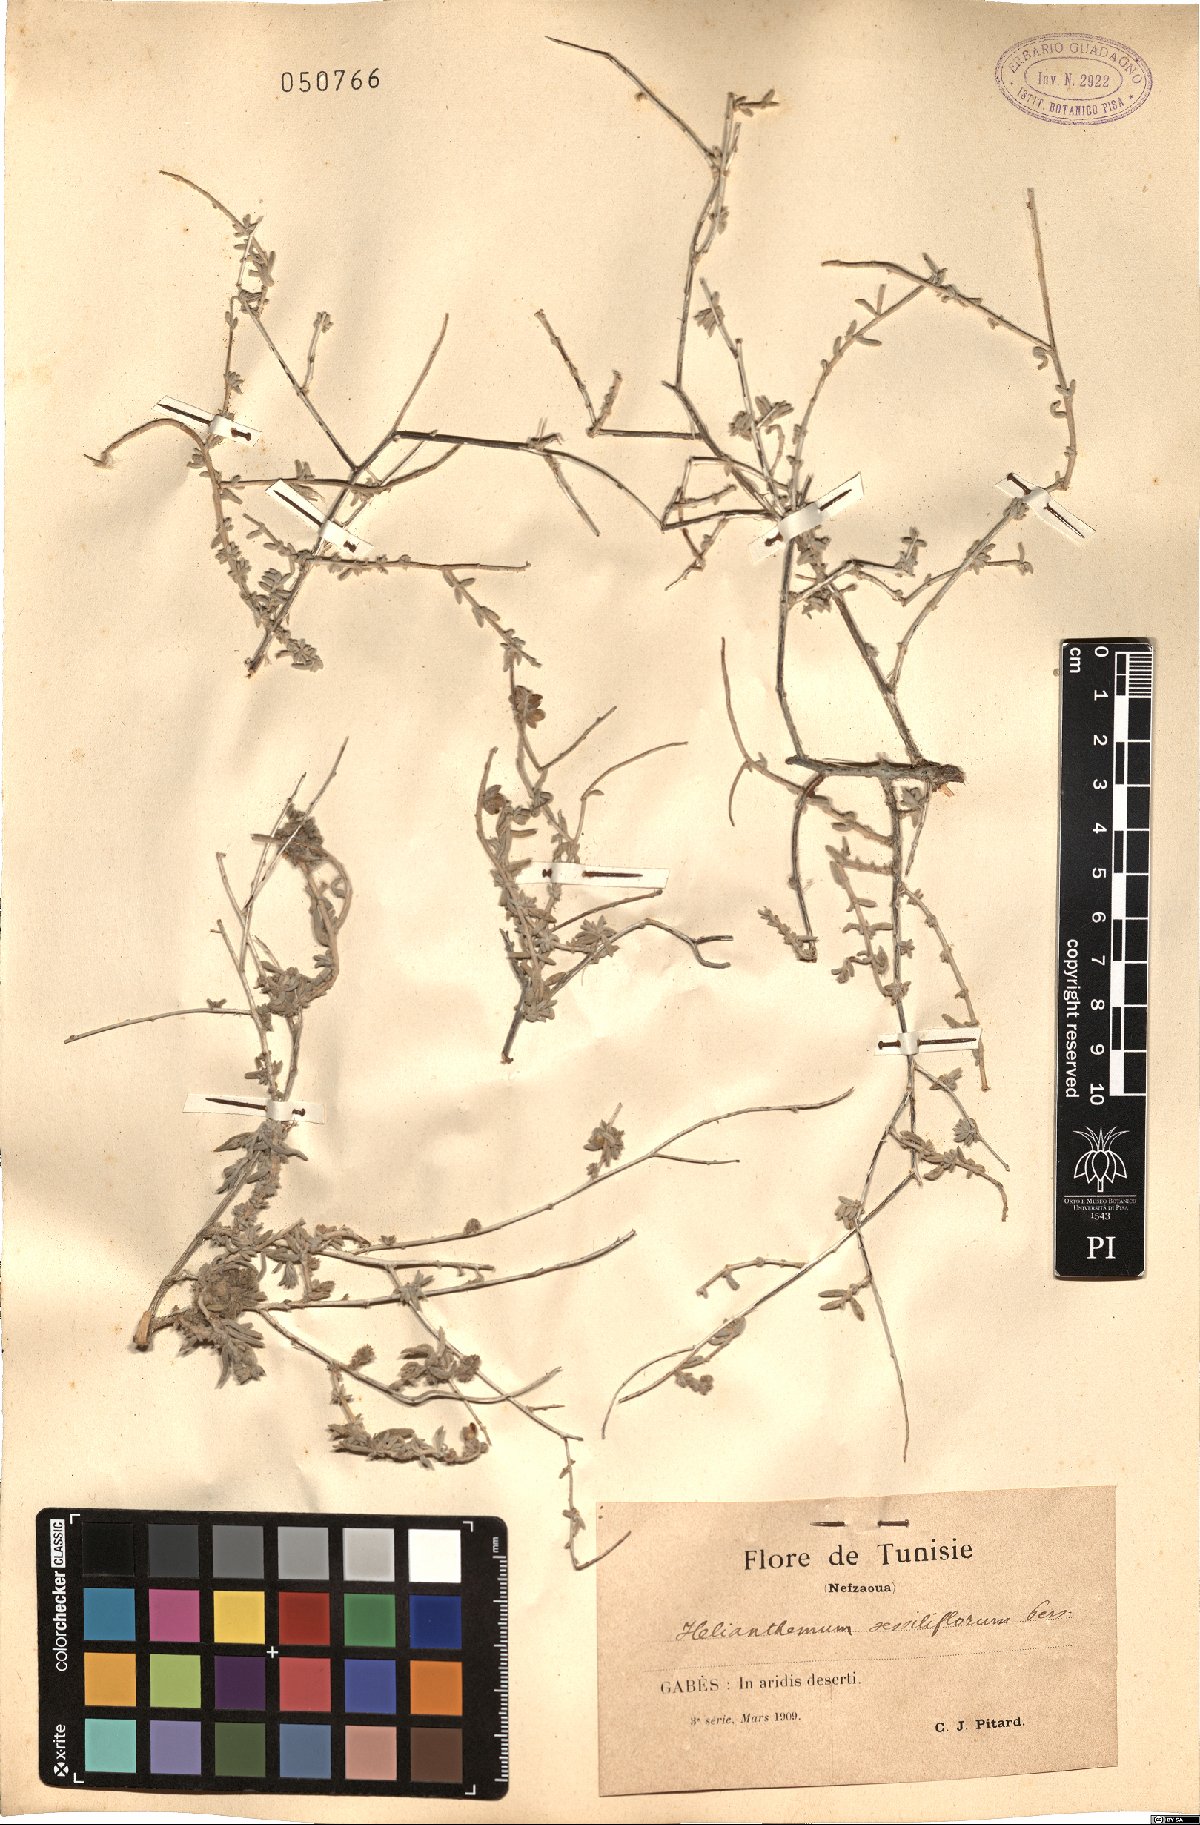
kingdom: Plantae
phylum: Tracheophyta
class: Magnoliopsida
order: Malvales
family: Cistaceae
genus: Helianthemum
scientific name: Helianthemum lippii
